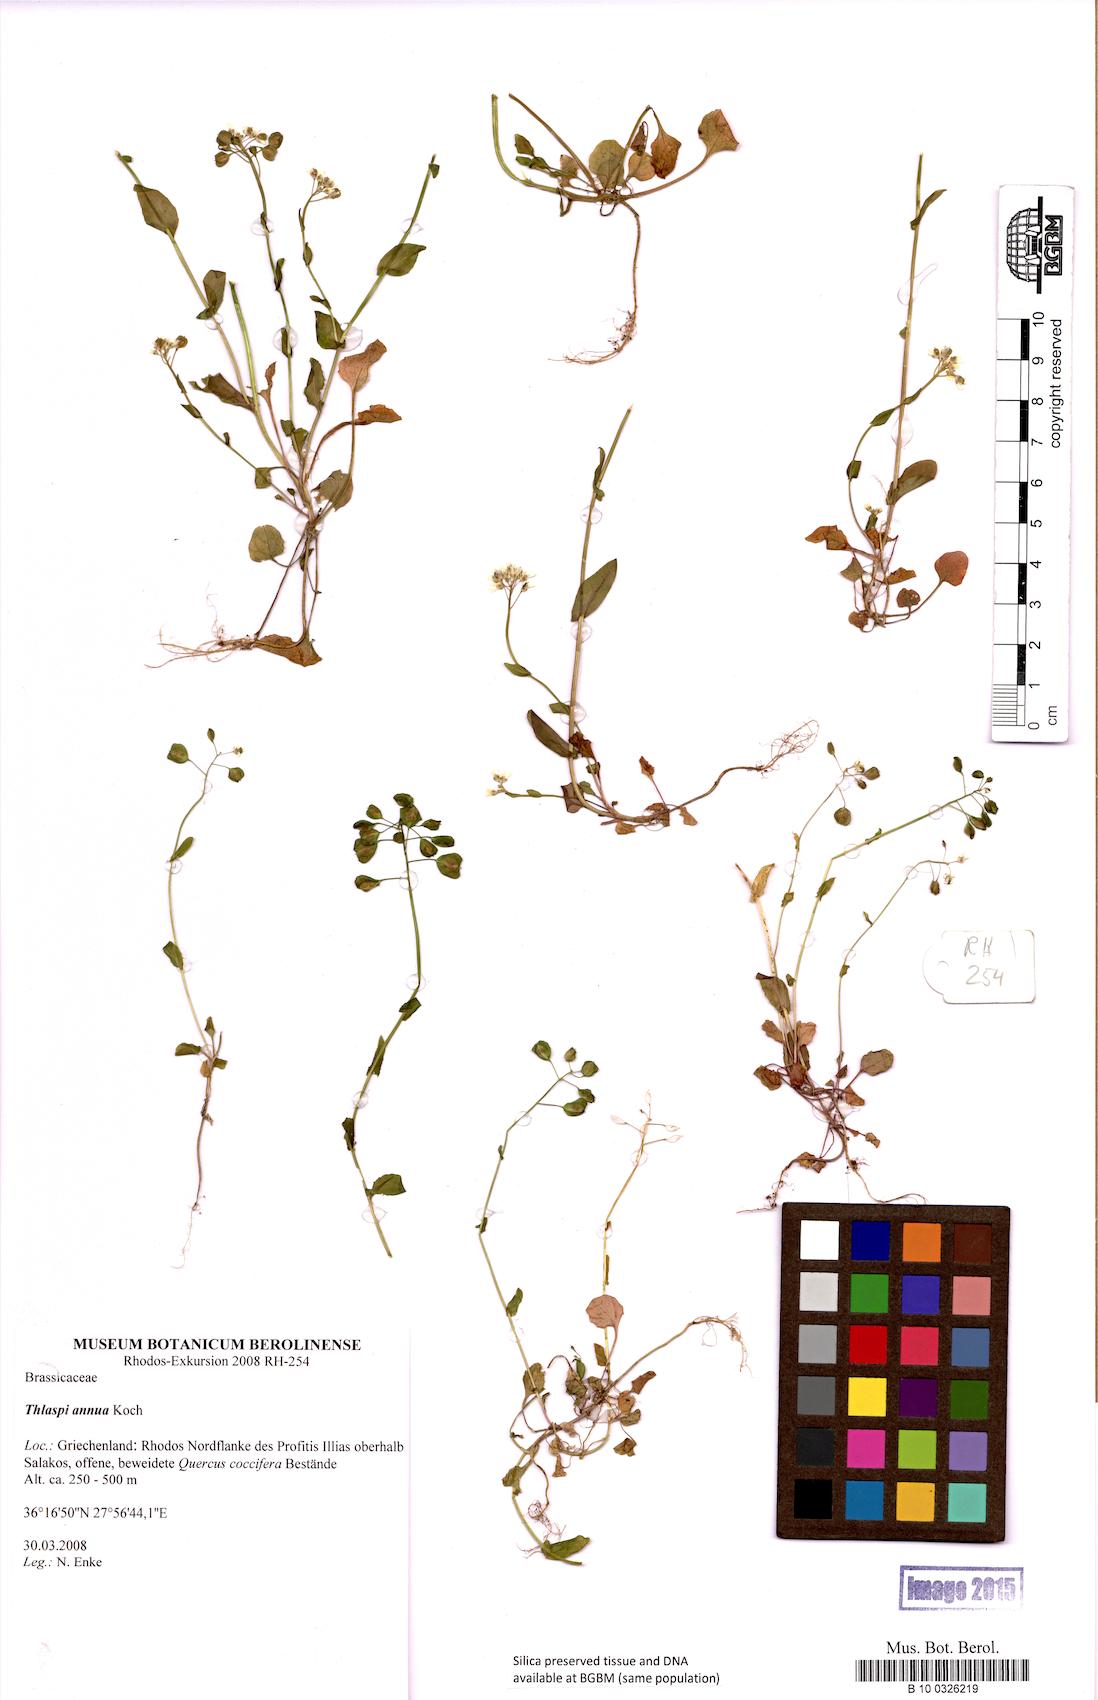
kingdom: Plantae
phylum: Tracheophyta
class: Magnoliopsida
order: Brassicales
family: Brassicaceae
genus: Noccaea
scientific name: Noccaea annua
